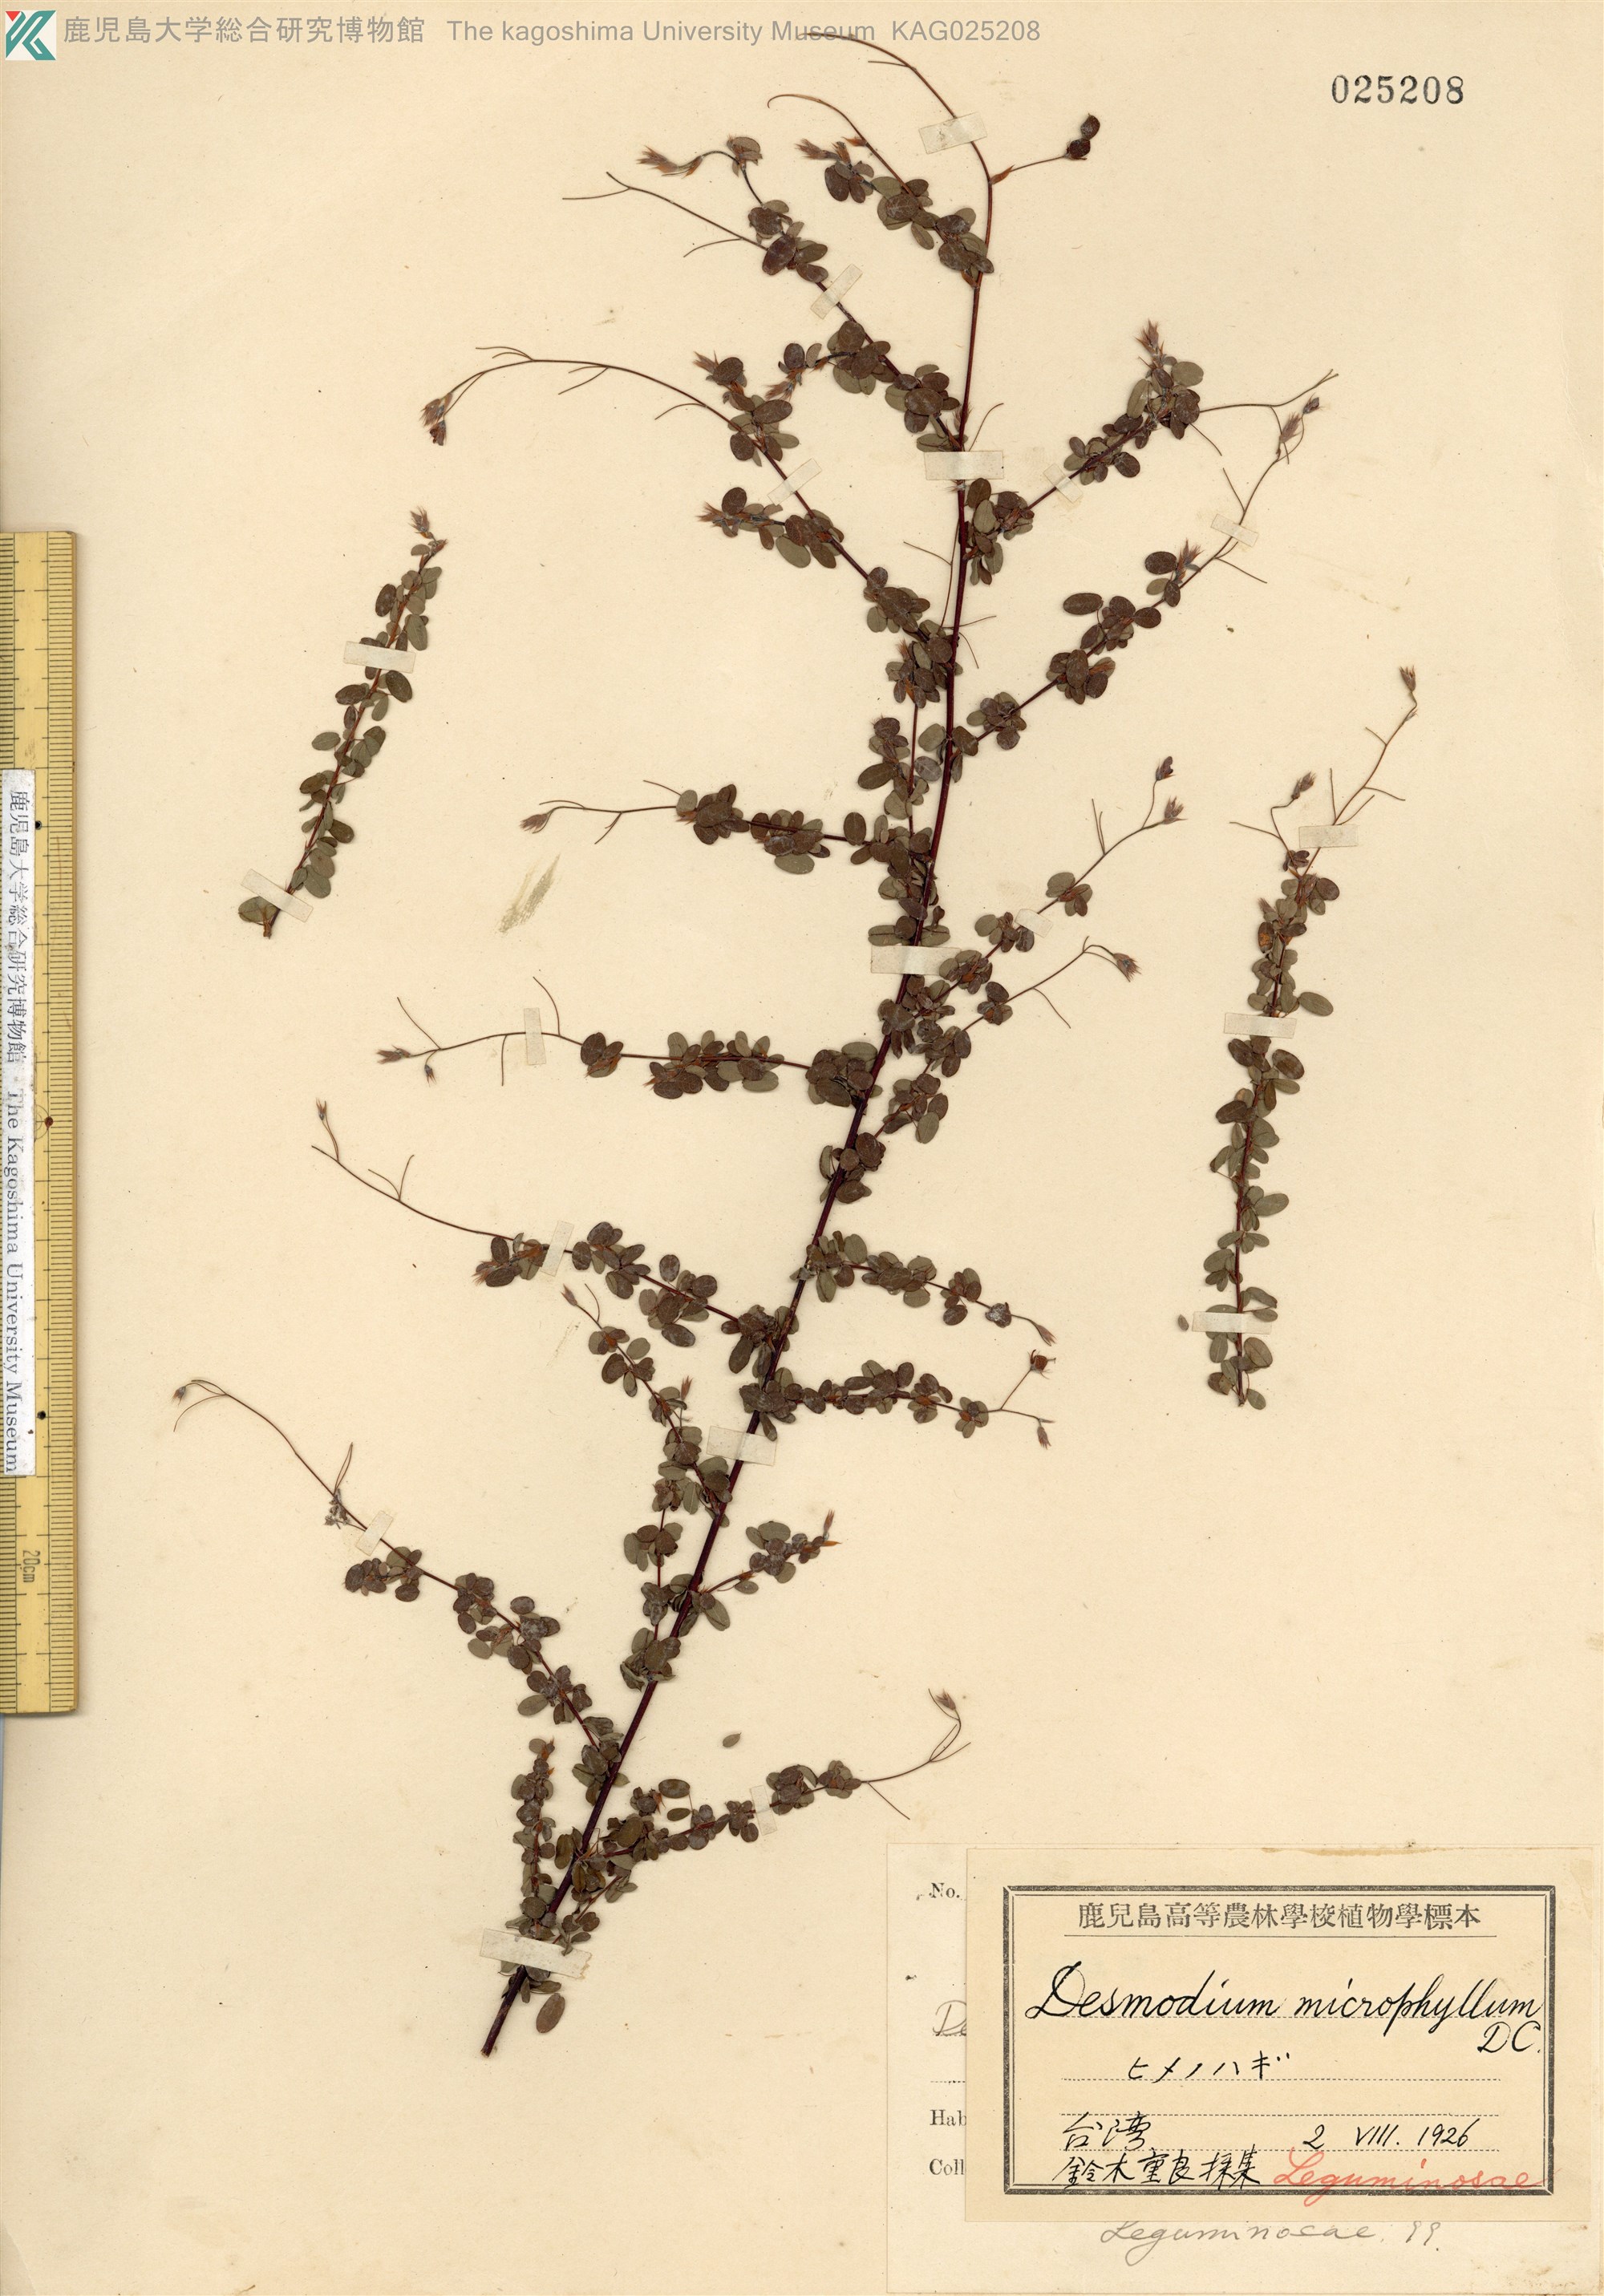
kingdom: Plantae
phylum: Tracheophyta
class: Magnoliopsida
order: Fabales
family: Fabaceae
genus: Leptodesmia
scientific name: Leptodesmia microphylla
